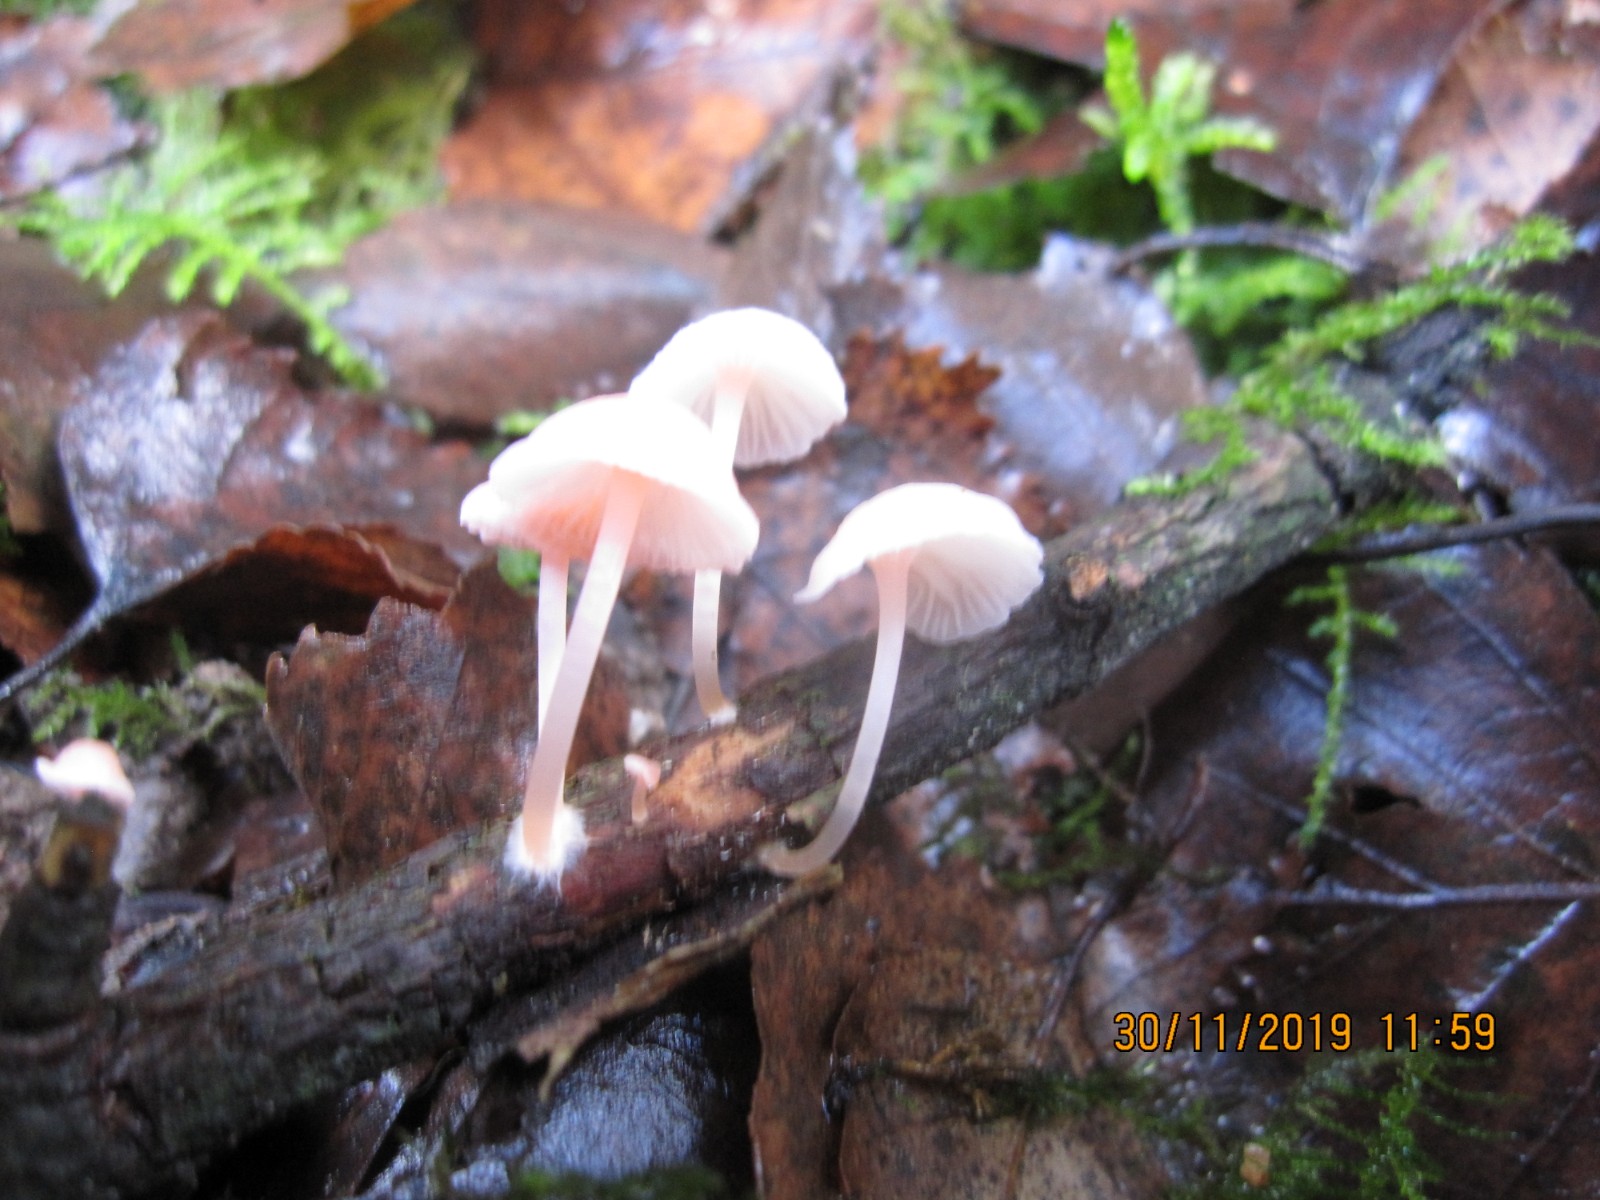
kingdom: Fungi
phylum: Basidiomycota
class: Agaricomycetes
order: Agaricales
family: Mycenaceae
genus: Mycena
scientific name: Mycena coccinea
